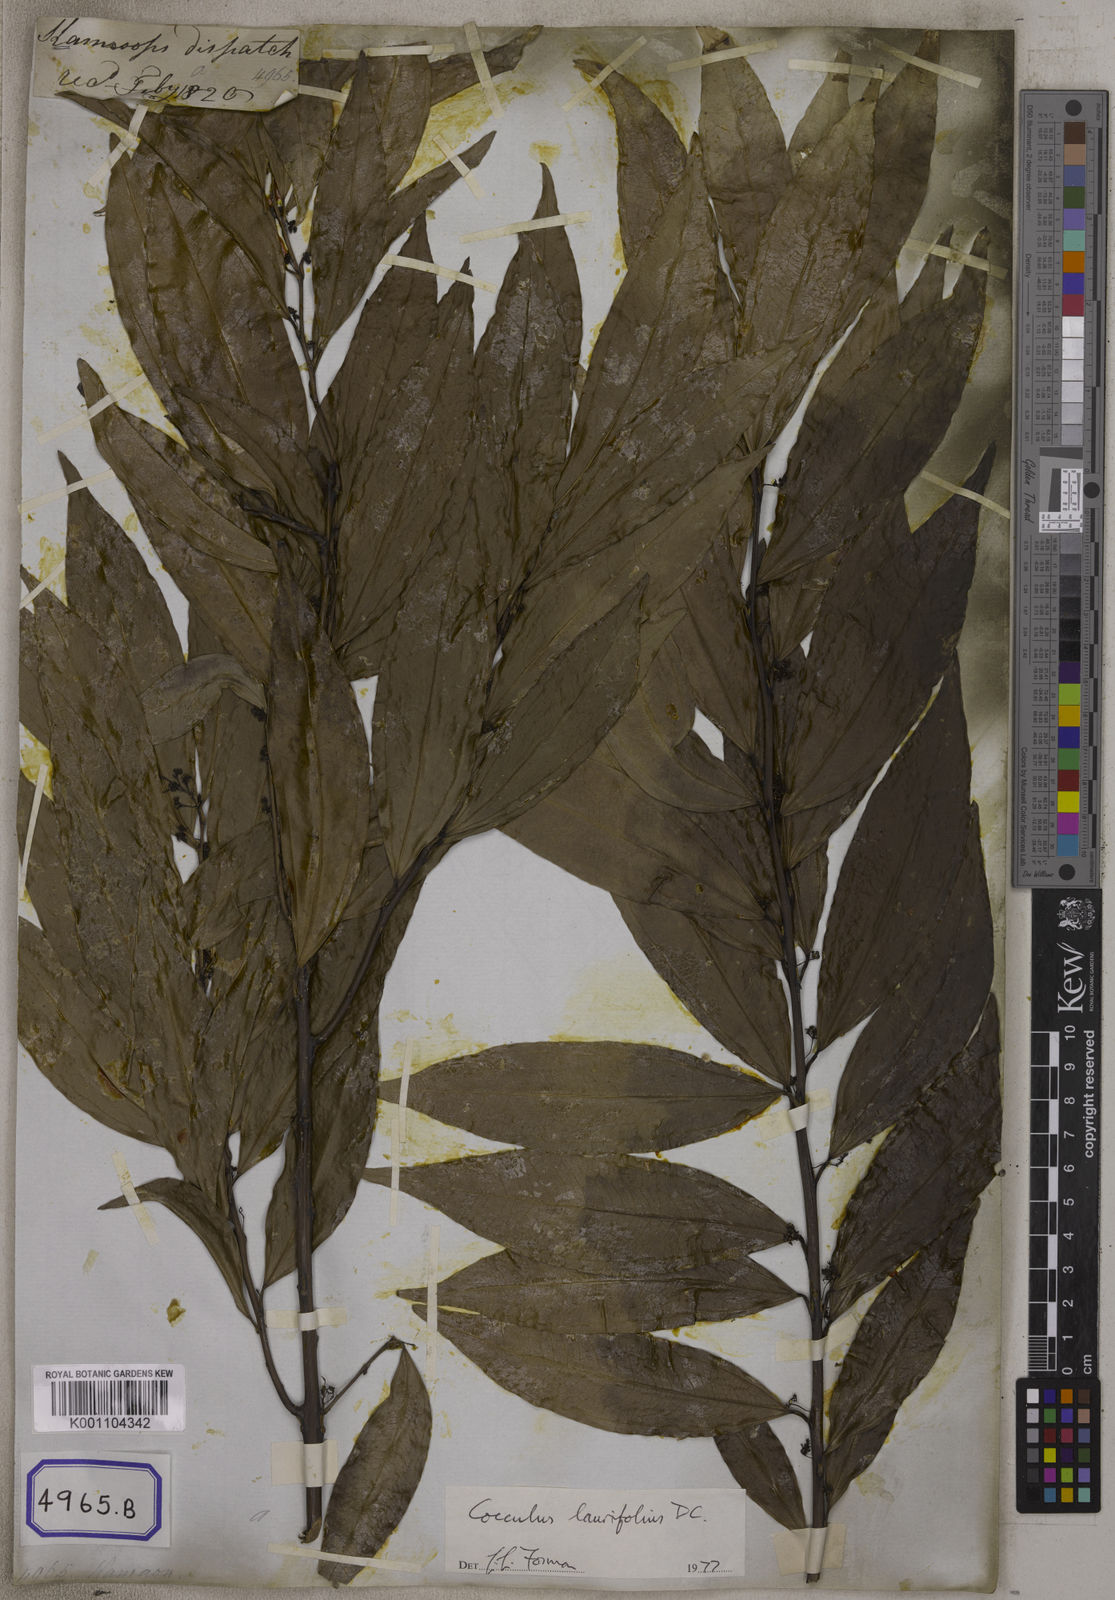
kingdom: Plantae
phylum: Tracheophyta
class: Magnoliopsida
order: Ranunculales
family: Menispermaceae
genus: Cocculus
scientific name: Cocculus laurifolius
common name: Laurel-leaf snailseed
